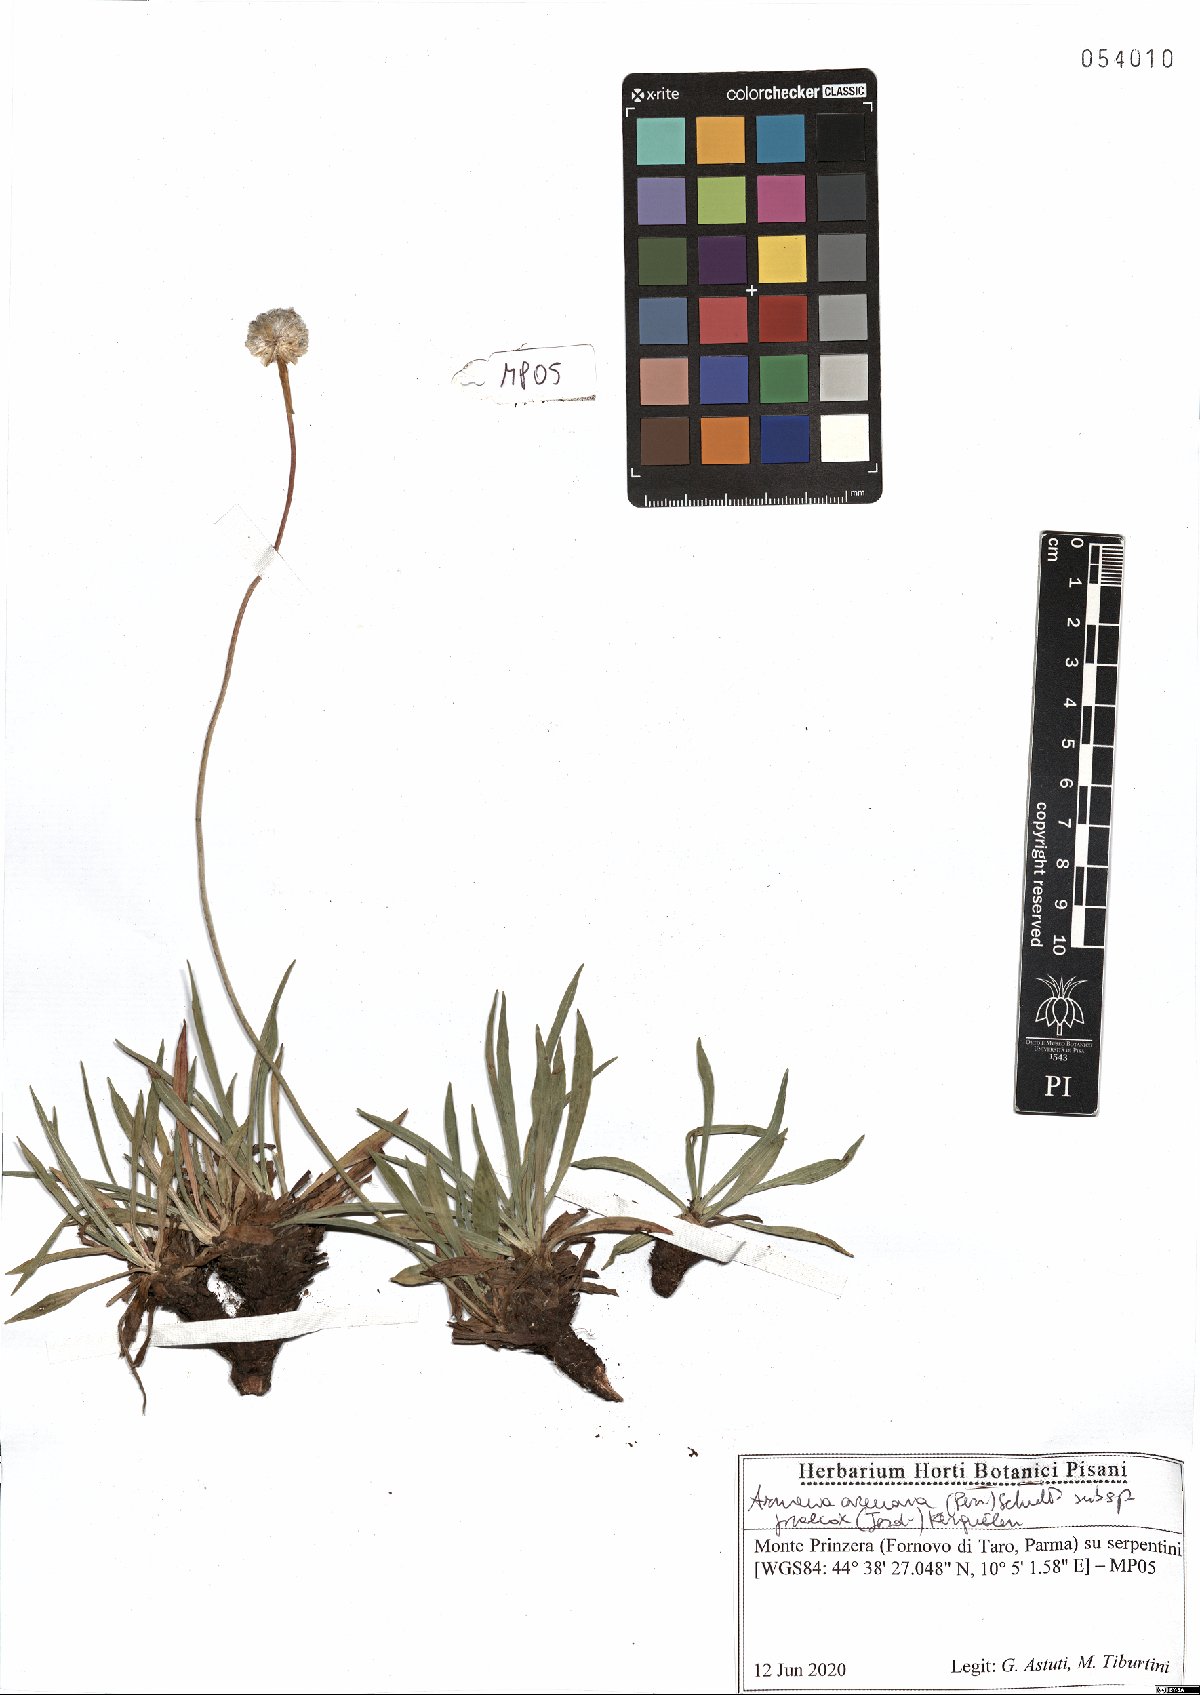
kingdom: Plantae
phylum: Tracheophyta
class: Magnoliopsida
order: Caryophyllales
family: Plumbaginaceae
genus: Armeria
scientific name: Armeria arenaria
